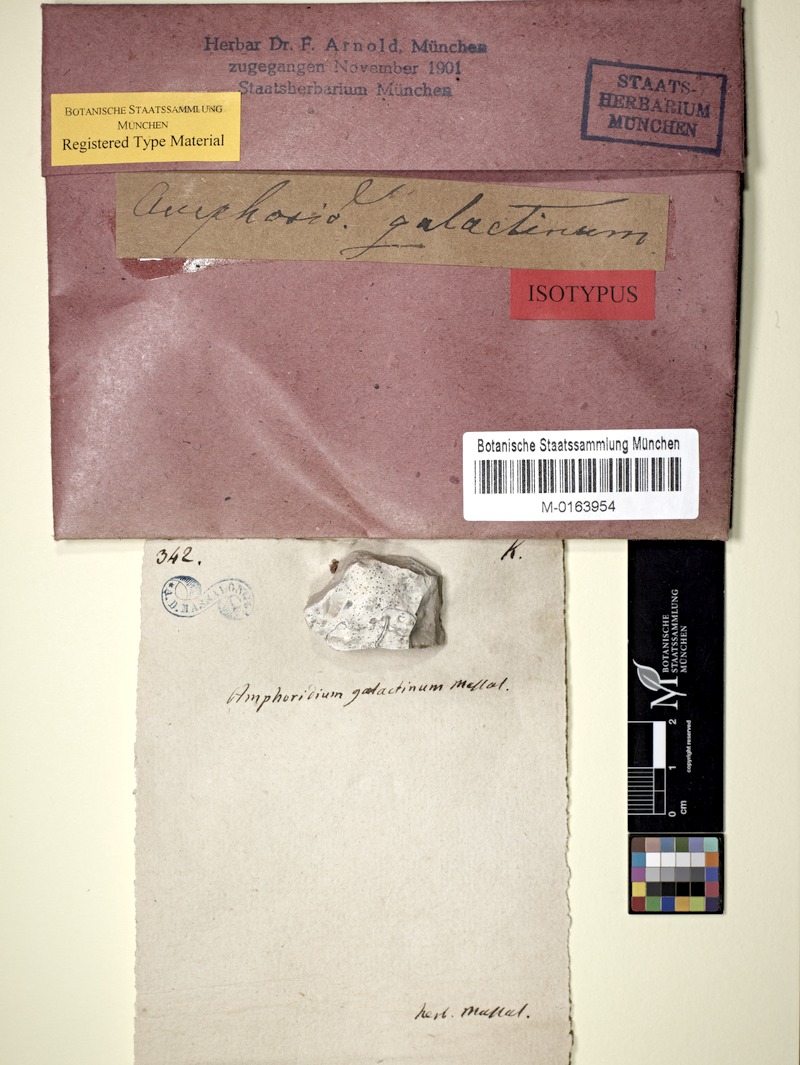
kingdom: Fungi
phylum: Ascomycota
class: Eurotiomycetes
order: Verrucariales
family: Verrucariaceae
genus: Verrucaria
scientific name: Verrucaria galactina
